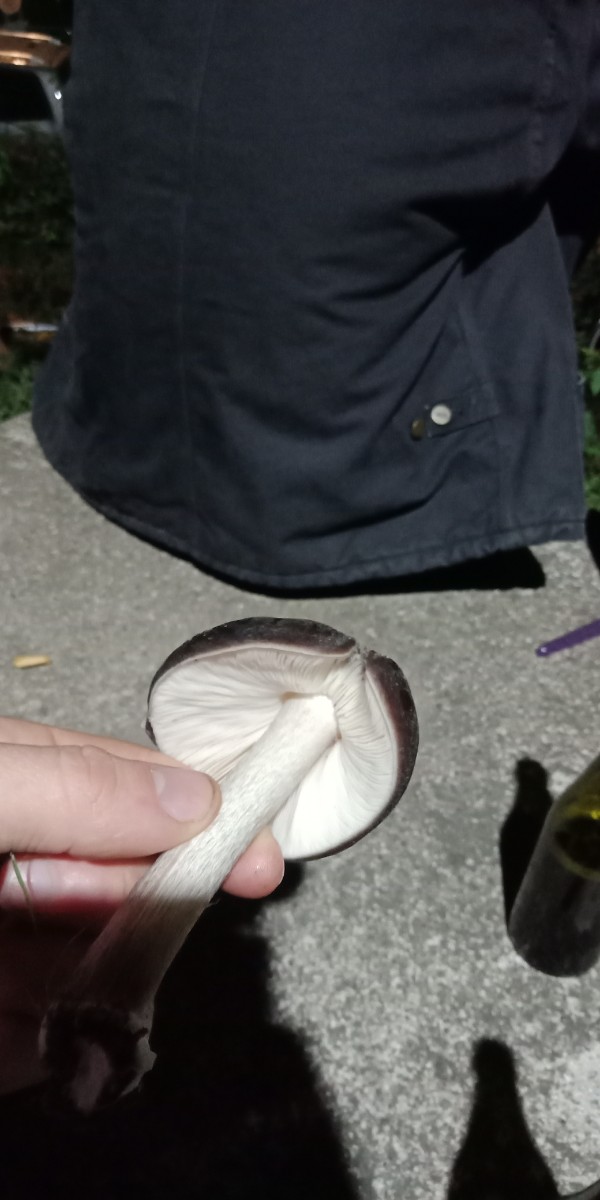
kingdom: Fungi
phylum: Basidiomycota
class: Agaricomycetes
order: Agaricales
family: Pluteaceae
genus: Pluteus
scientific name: Pluteus cervinus
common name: sodfarvet skærmhat
